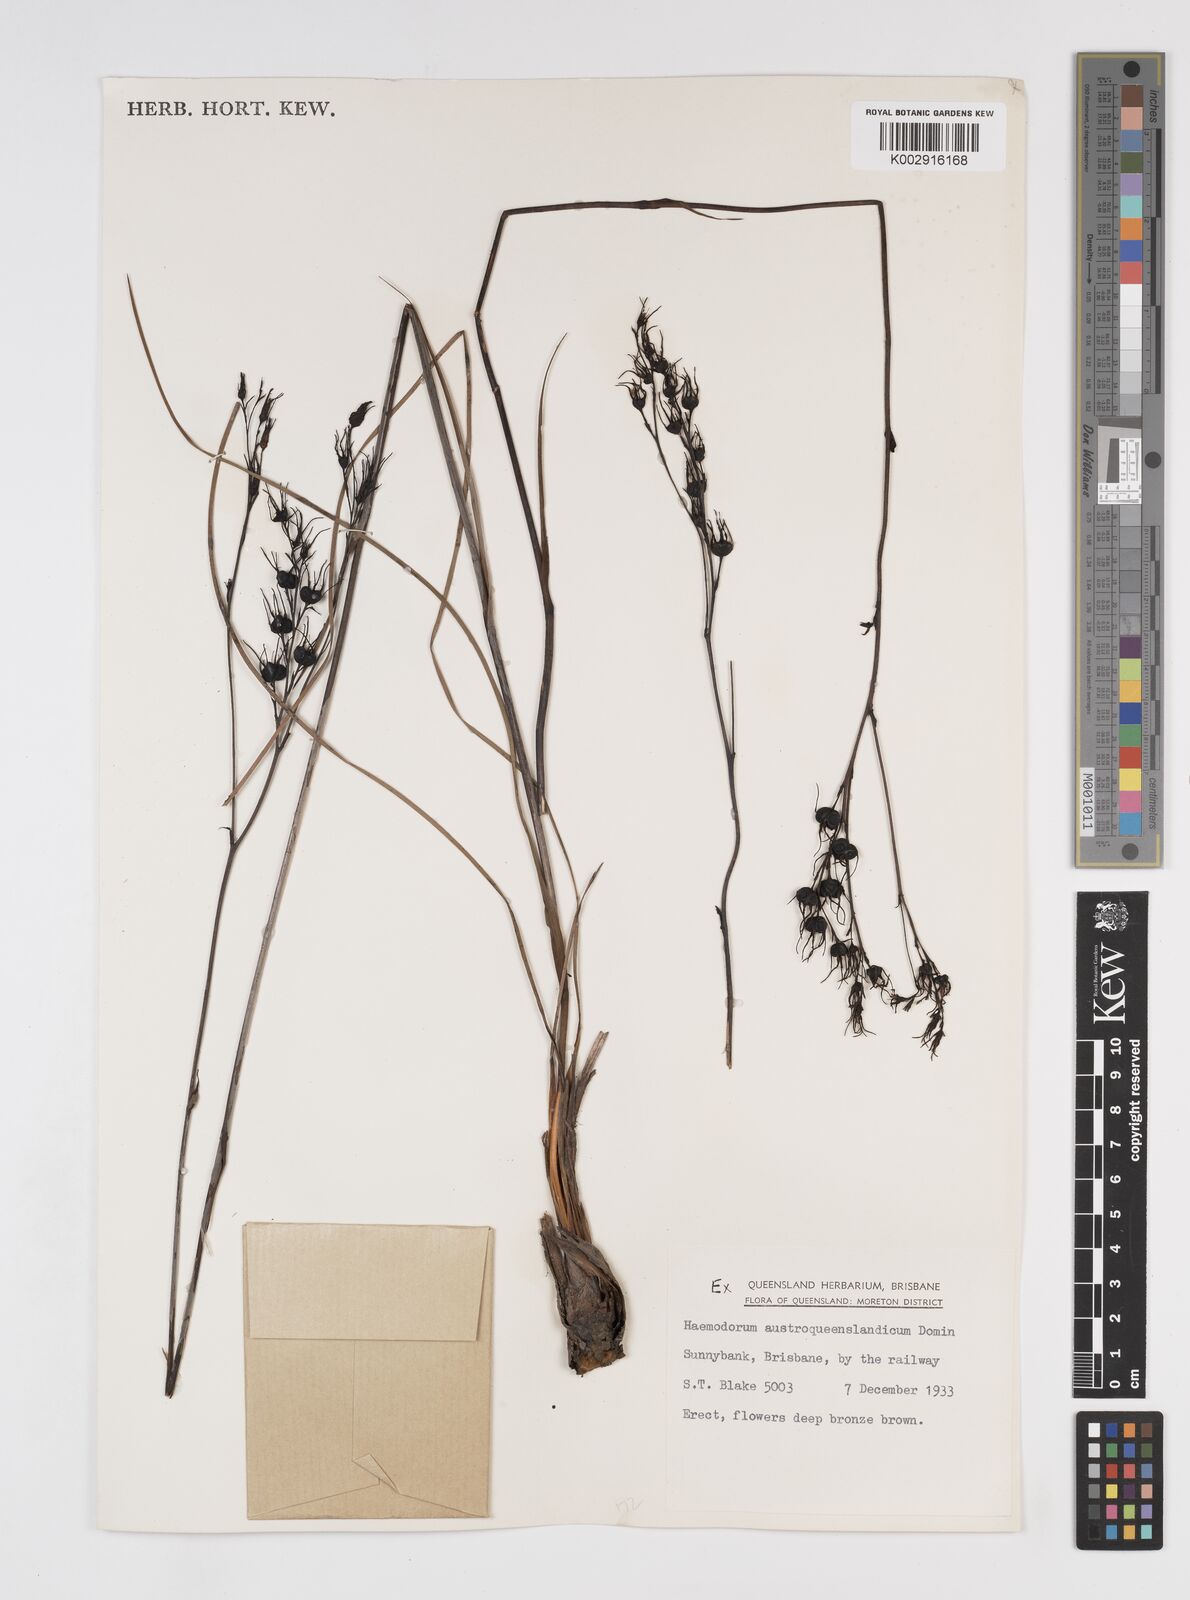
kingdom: Plantae
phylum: Tracheophyta
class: Liliopsida
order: Commelinales
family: Haemodoraceae
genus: Haemodorum
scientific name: Haemodorum austroqueenslandicum
